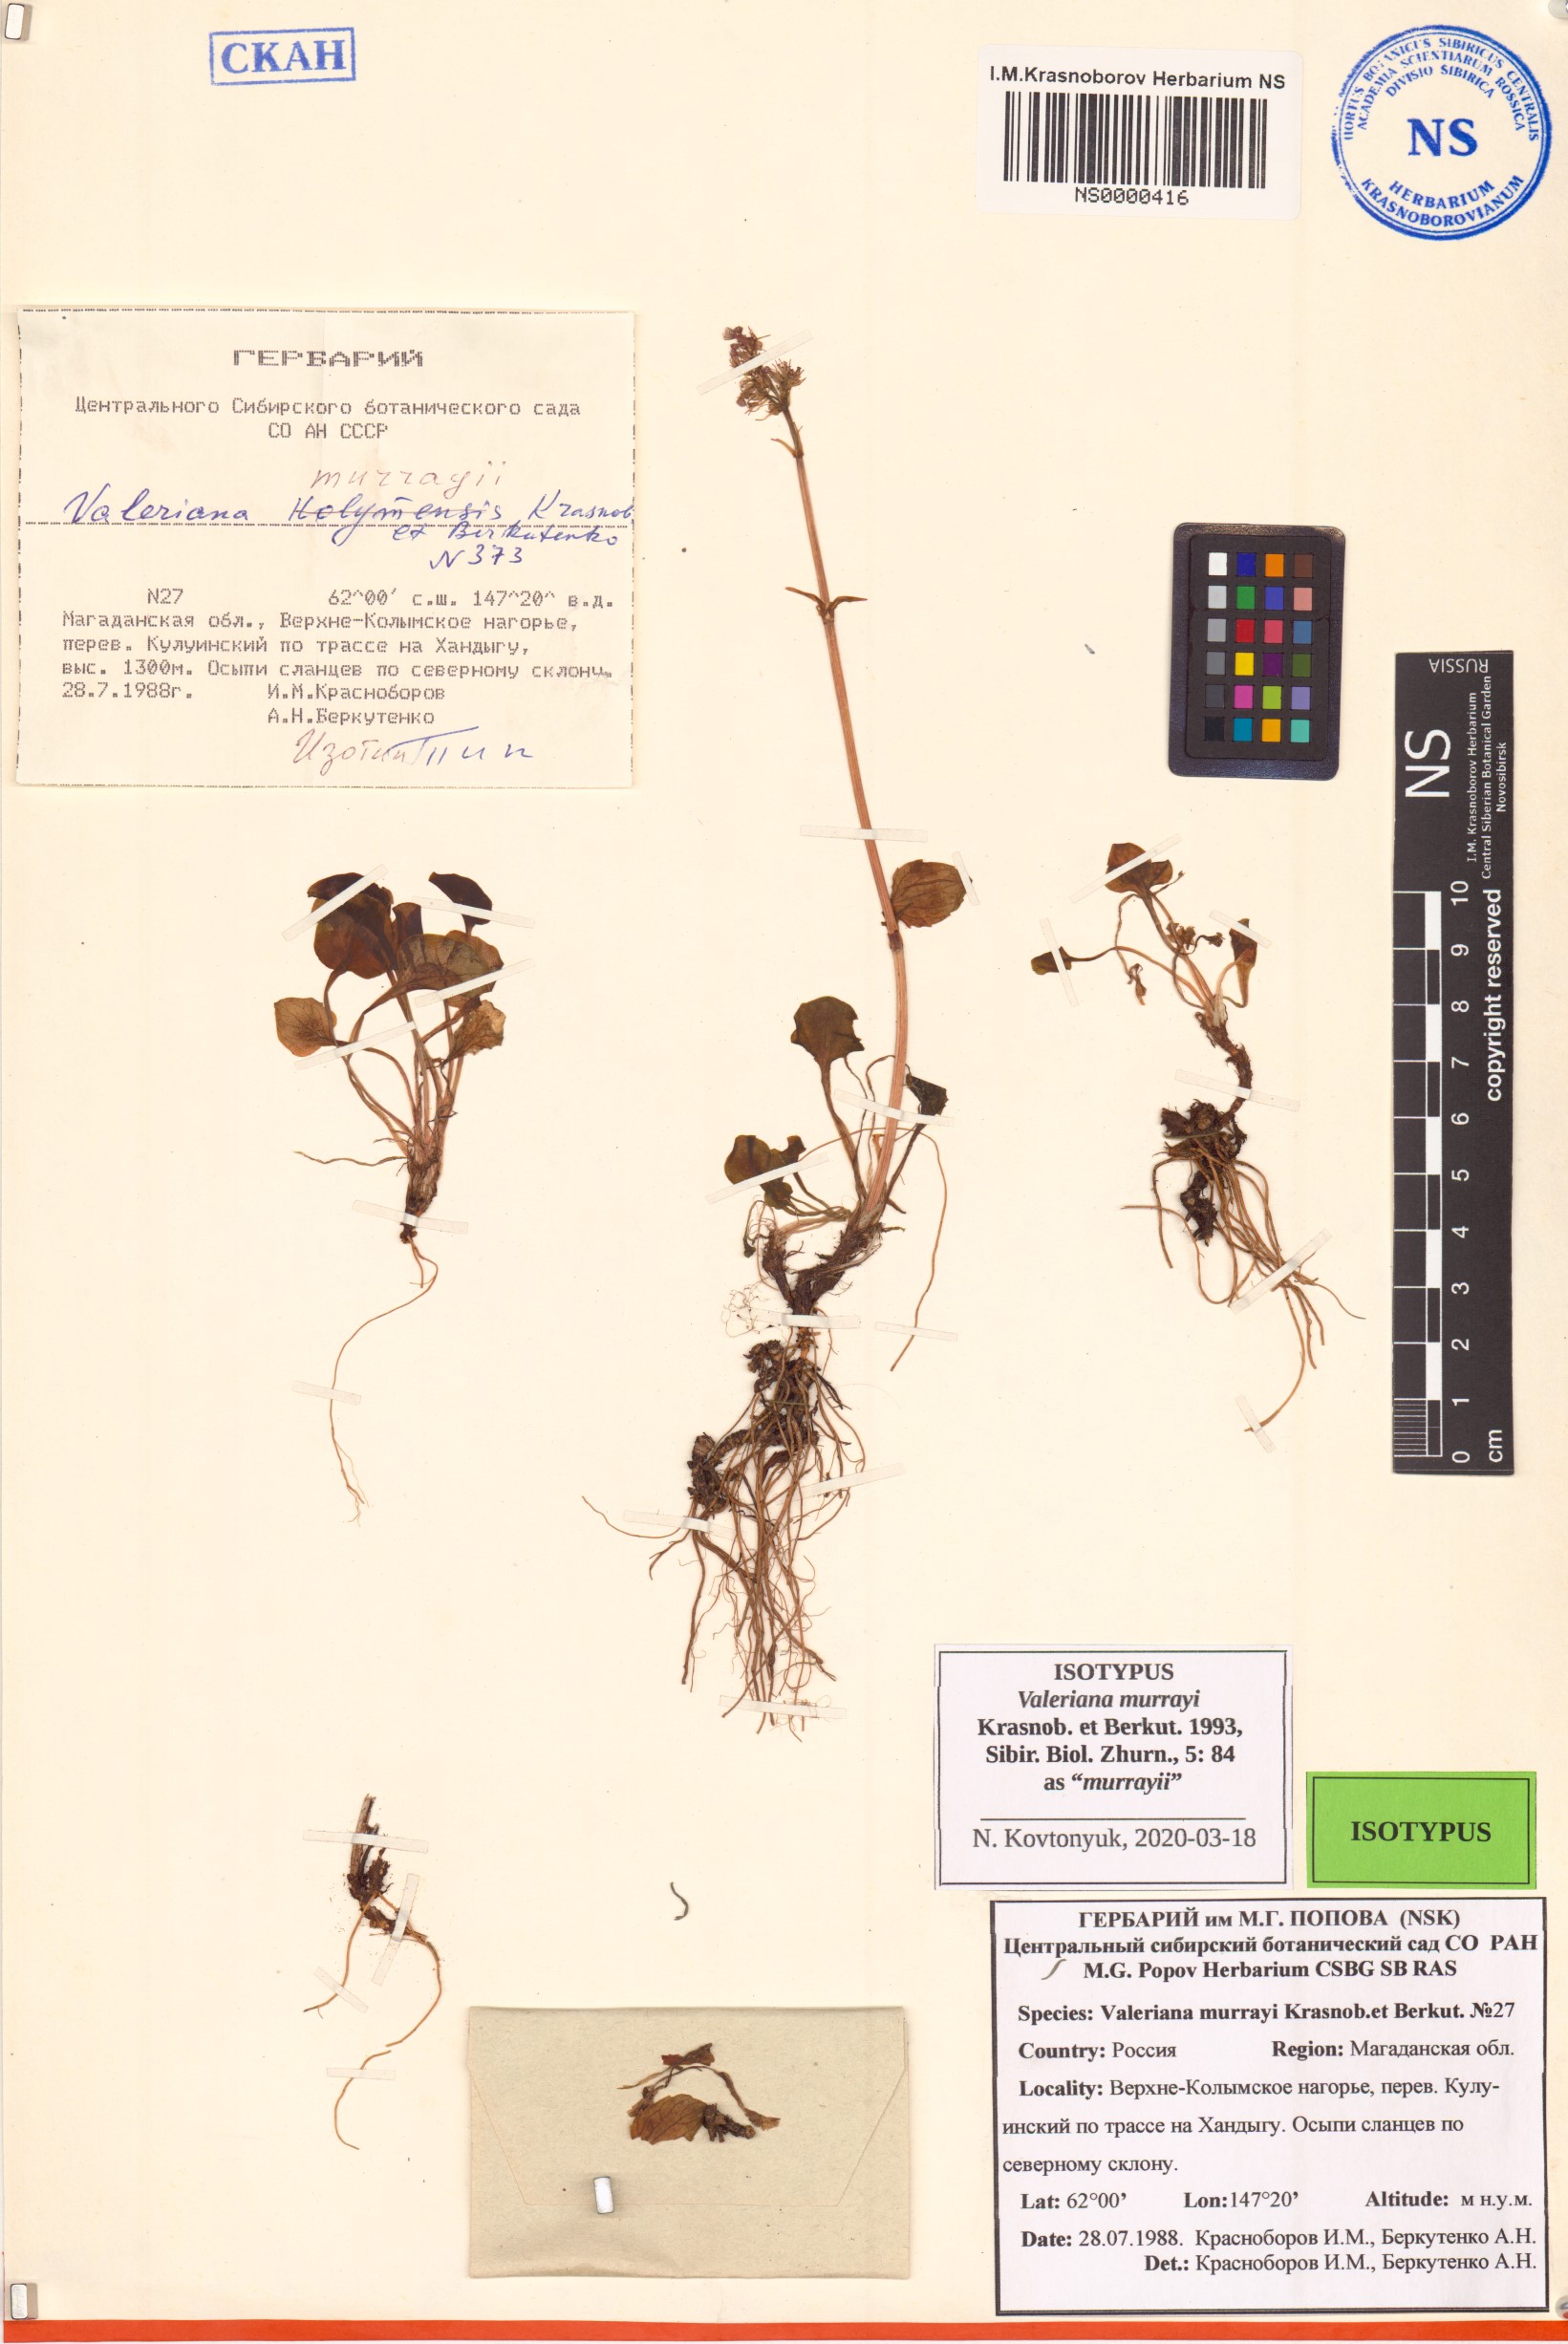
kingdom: Plantae
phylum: Tracheophyta
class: Magnoliopsida
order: Dipsacales
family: Caprifoliaceae
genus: Valeriana
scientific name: Valeriana murrayi
